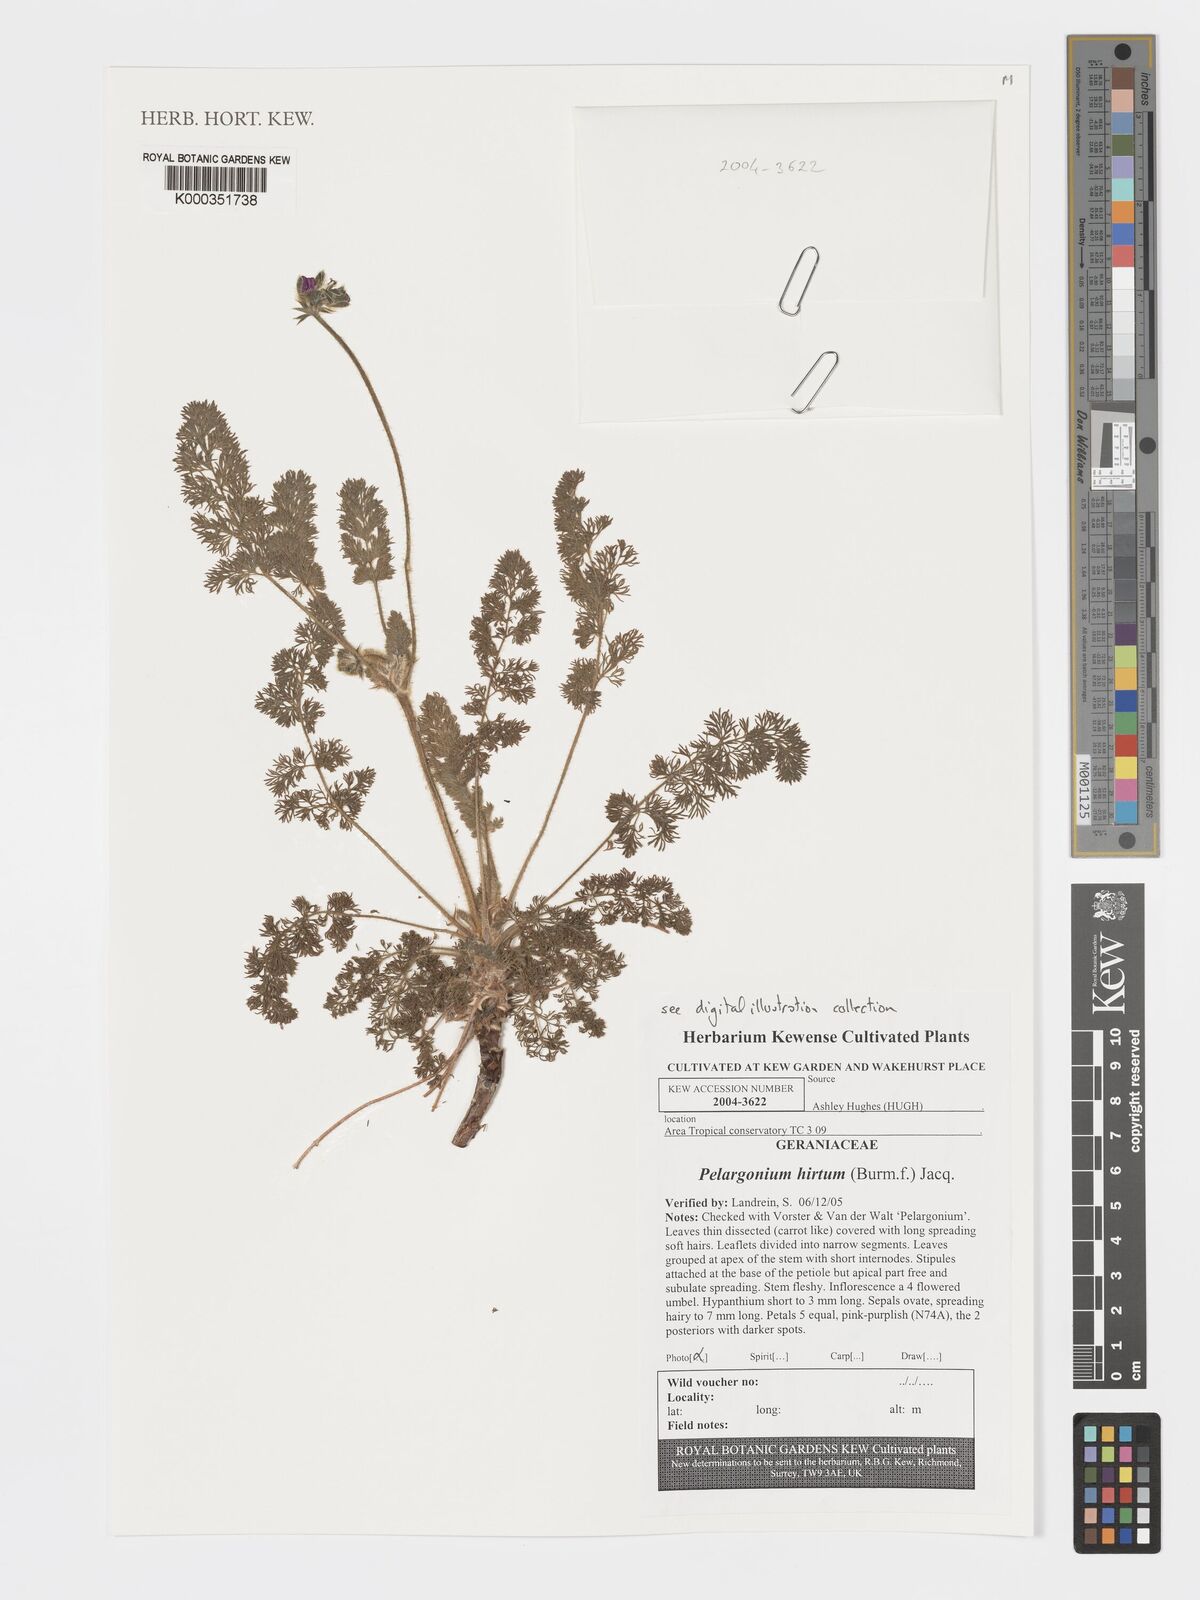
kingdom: Plantae
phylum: Tracheophyta
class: Magnoliopsida
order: Geraniales
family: Geraniaceae
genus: Pelargonium
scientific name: Pelargonium hirtum
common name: Fine-leaf pelargonium
